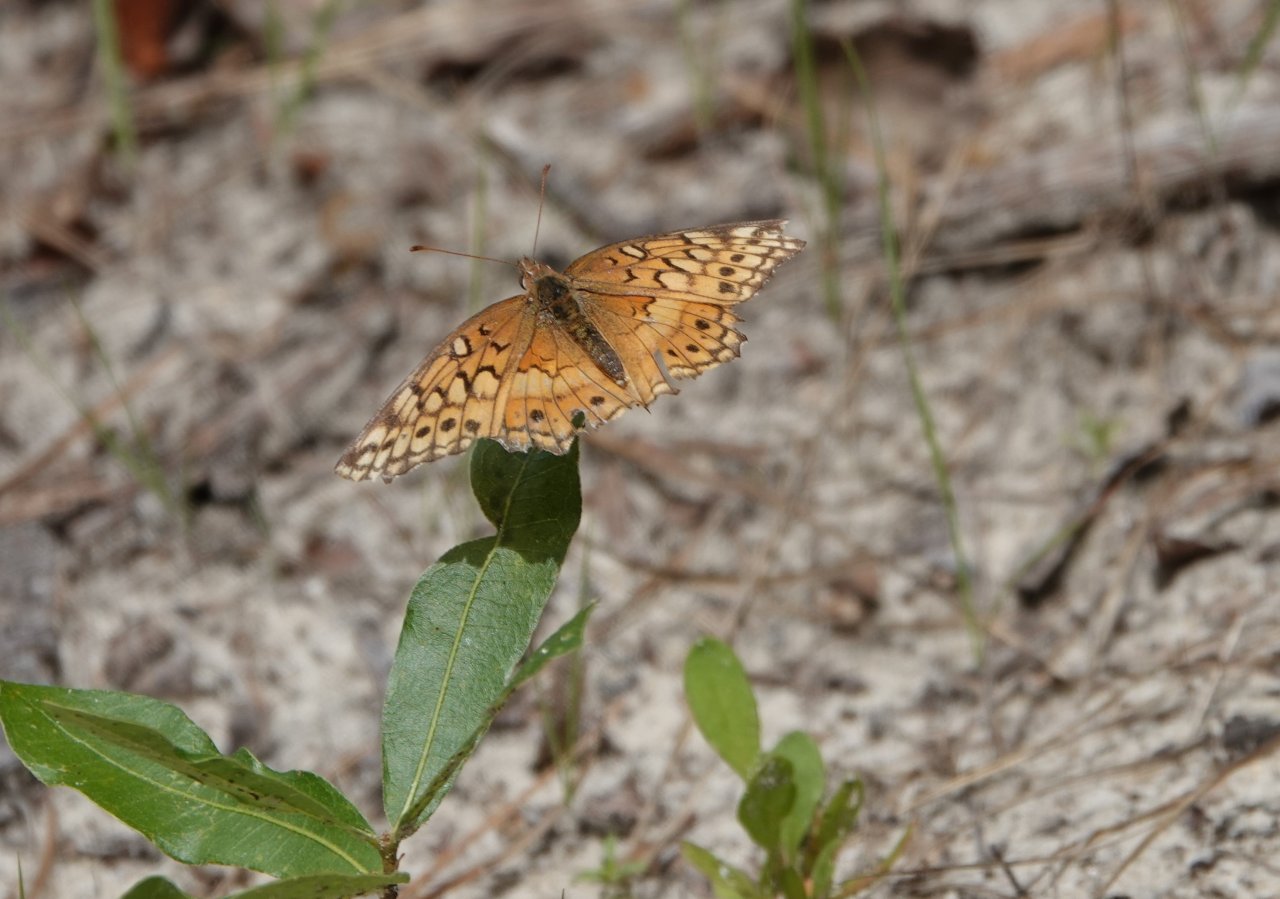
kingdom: Animalia
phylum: Arthropoda
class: Insecta
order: Lepidoptera
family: Nymphalidae
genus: Euptoieta
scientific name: Euptoieta claudia
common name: Variegated Fritillary
